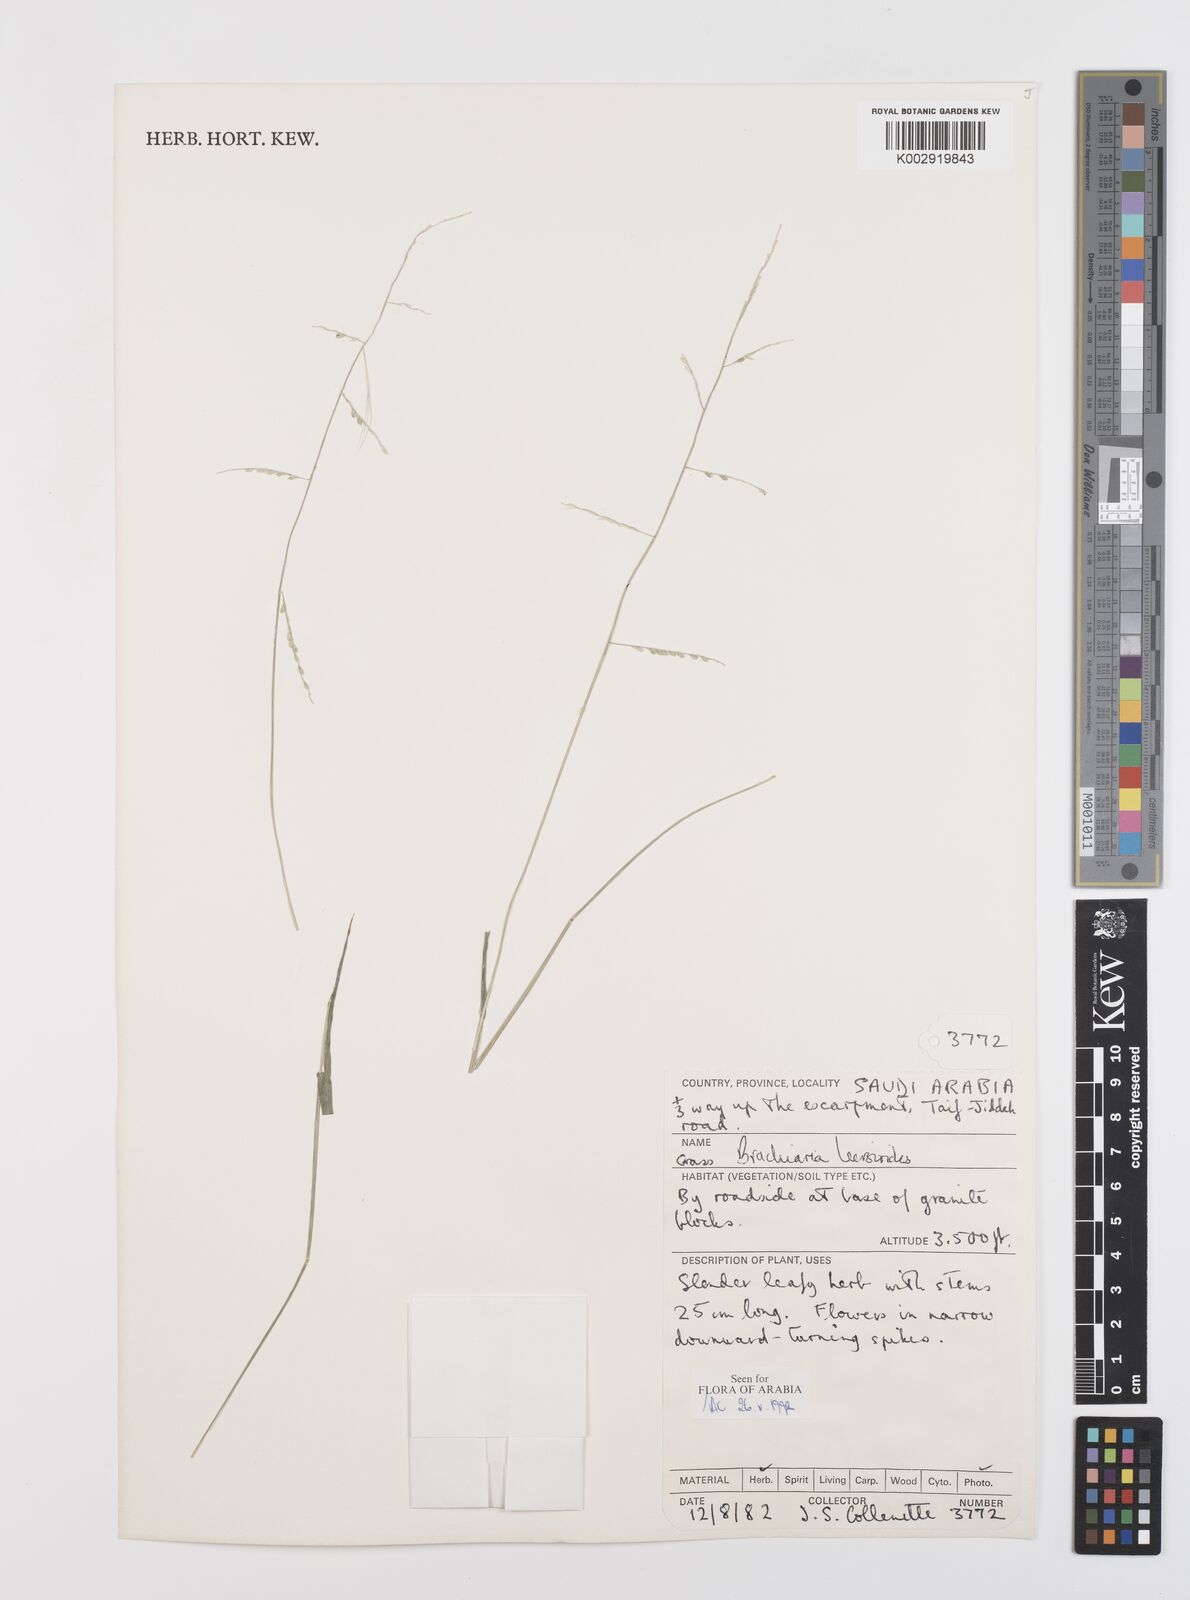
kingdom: Plantae
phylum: Tracheophyta
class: Liliopsida
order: Poales
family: Poaceae
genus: Urochloa
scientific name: Urochloa leersioides
